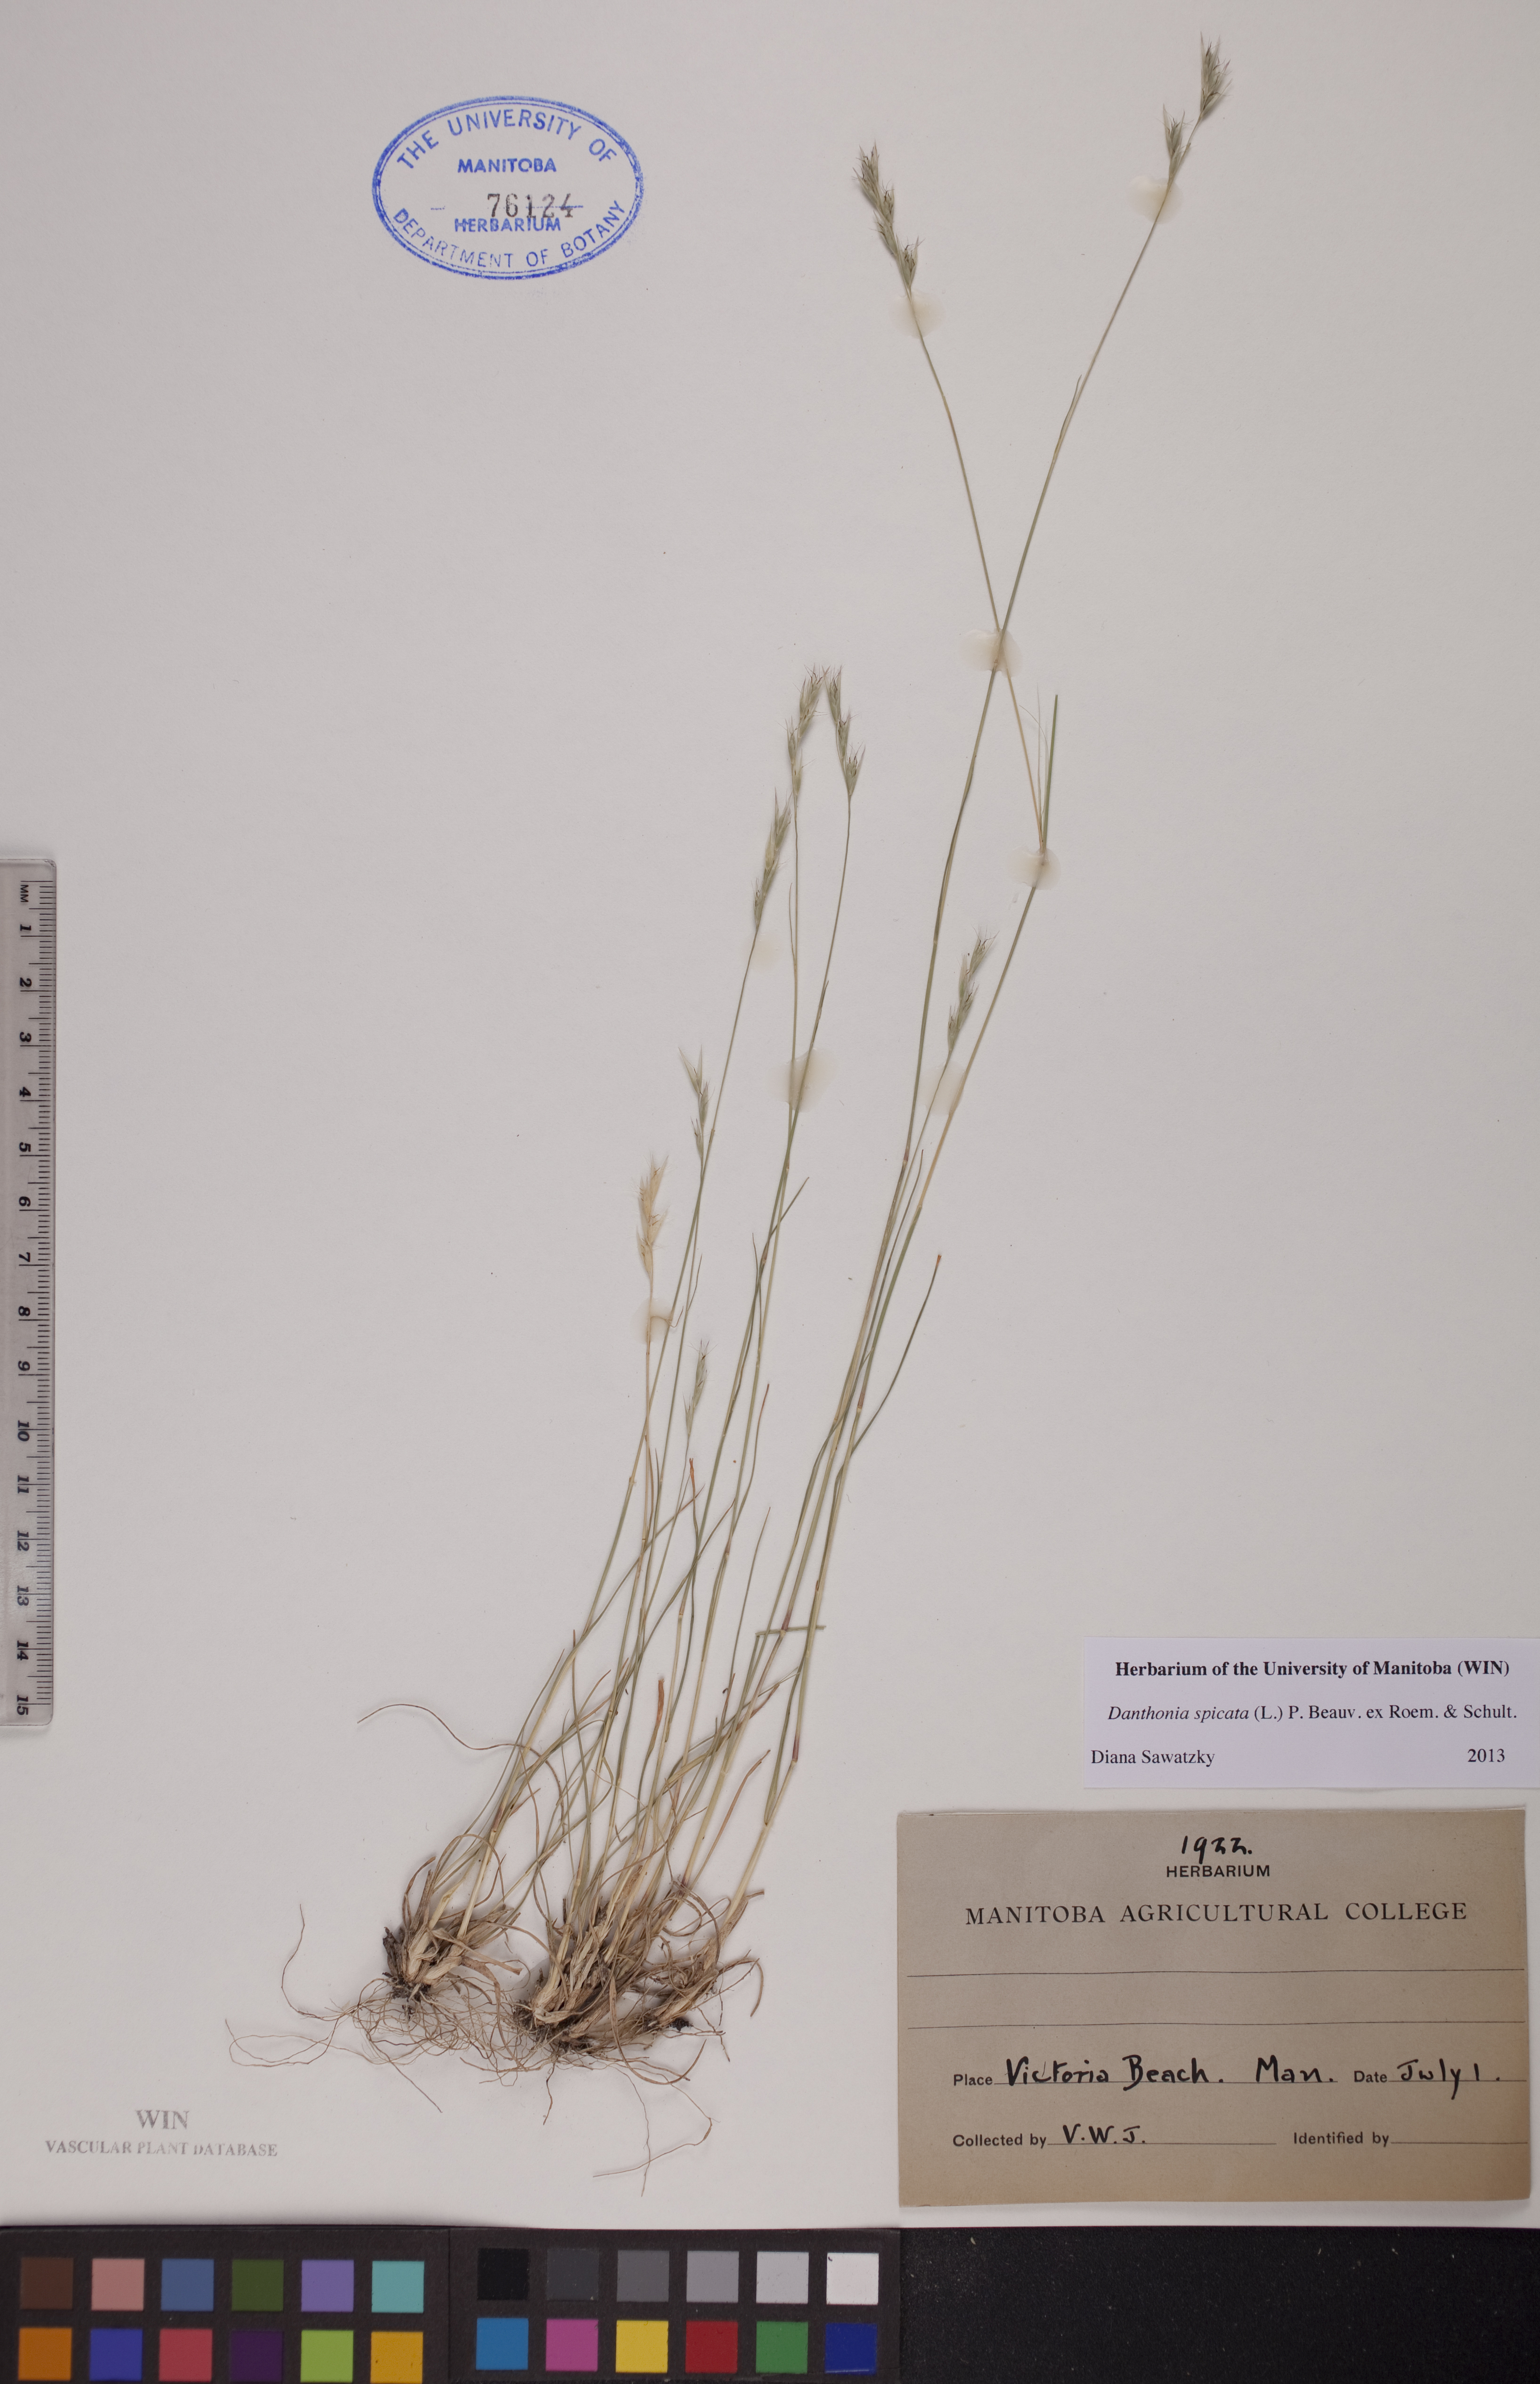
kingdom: Plantae
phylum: Tracheophyta
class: Liliopsida
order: Poales
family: Poaceae
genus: Danthonia
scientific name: Danthonia spicata
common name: Common wild oatgrass
